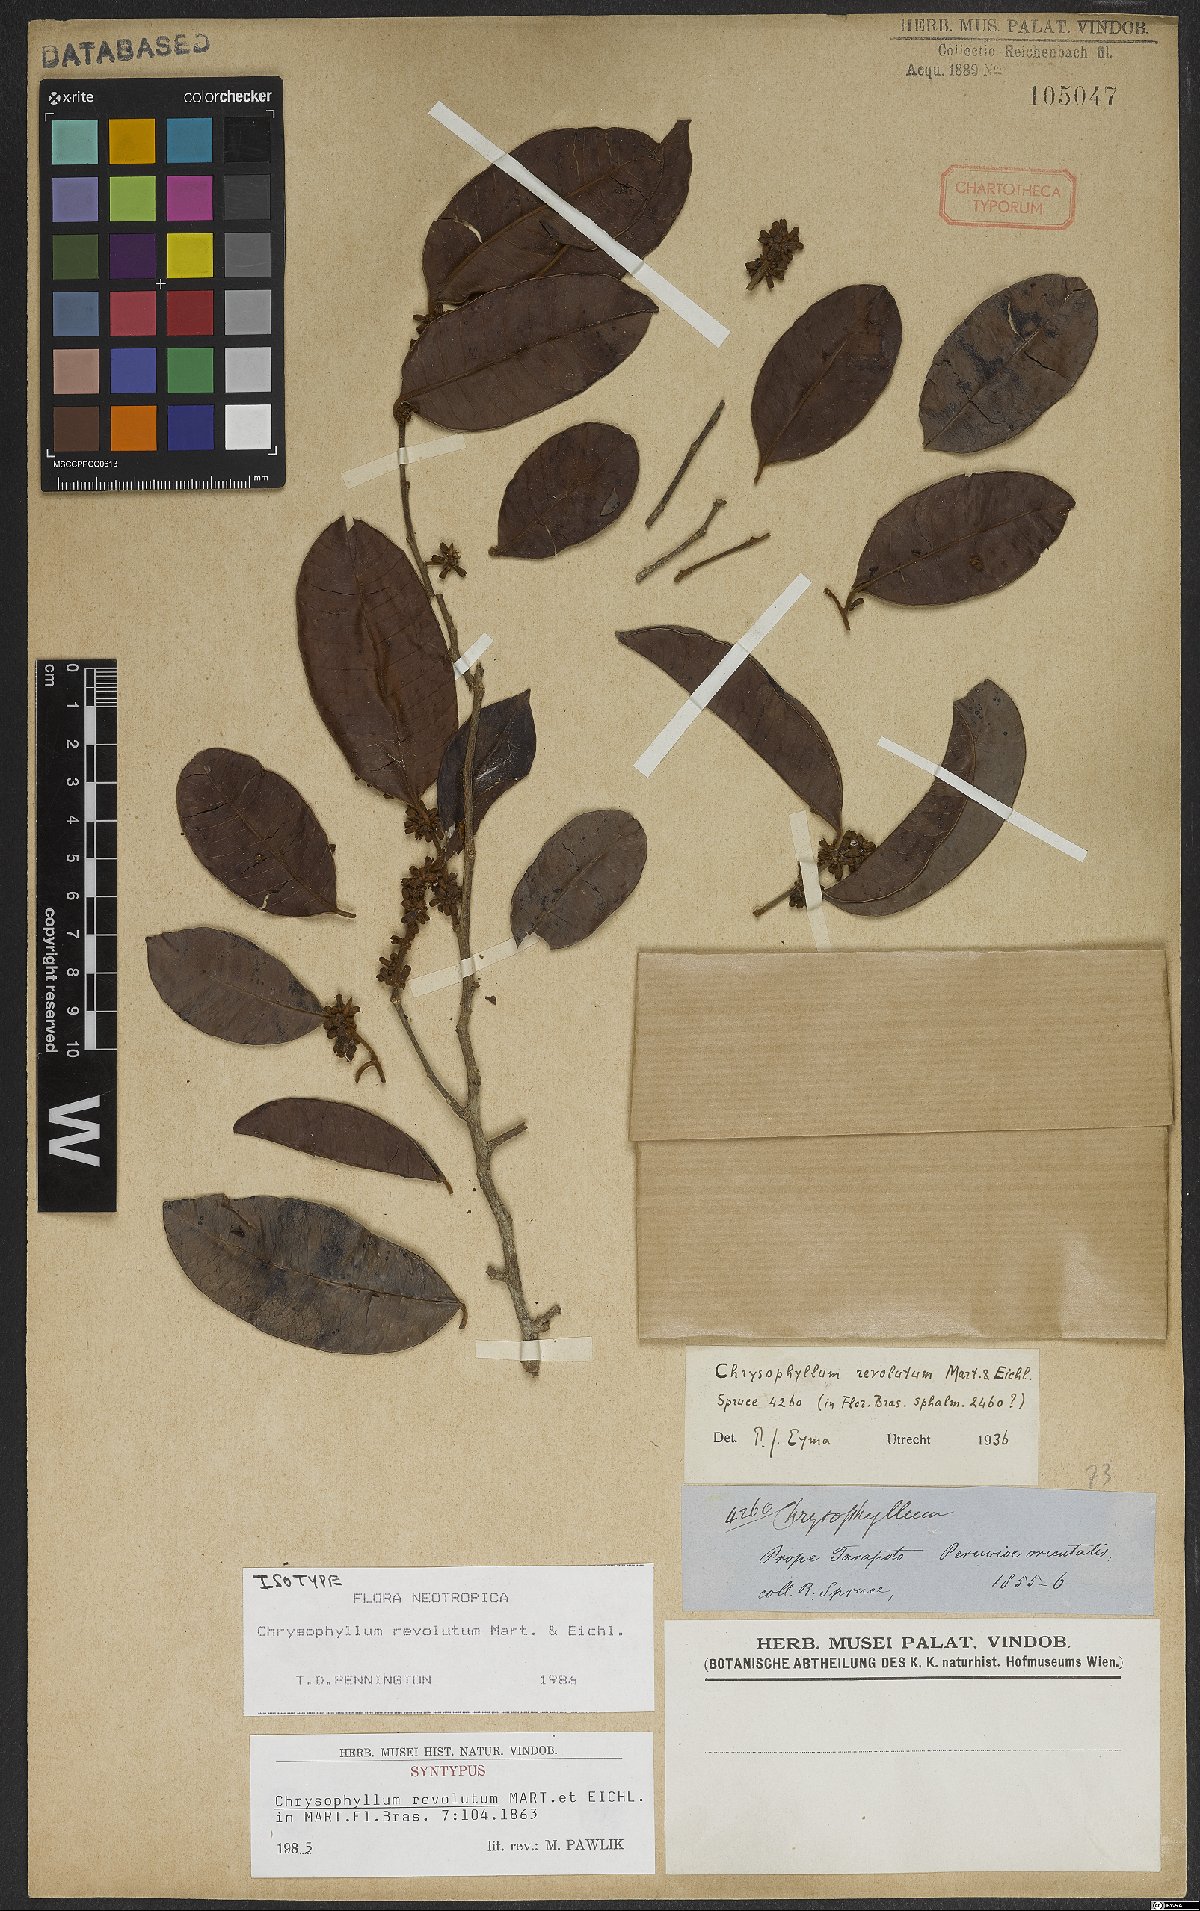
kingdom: Plantae
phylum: Tracheophyta
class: Magnoliopsida
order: Ericales
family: Sapotaceae
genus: Chrysophyllum
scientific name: Chrysophyllum revolutum
